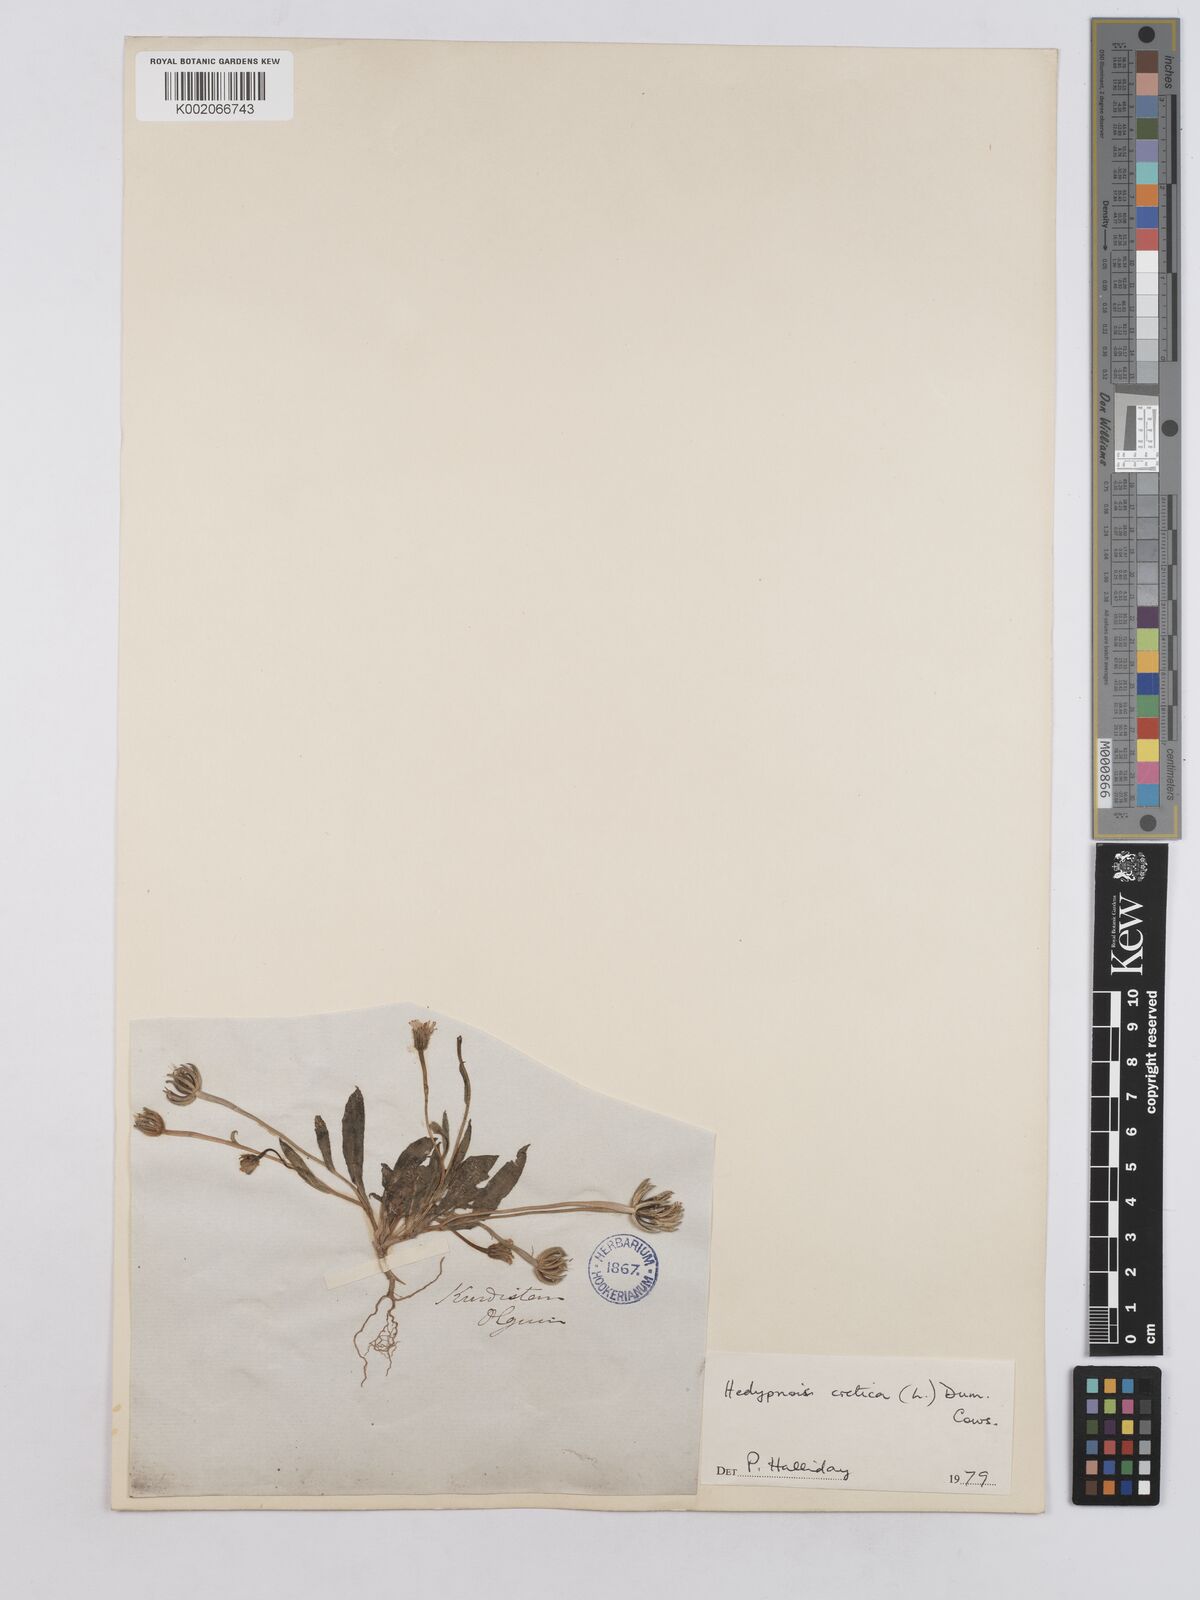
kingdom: Plantae
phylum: Tracheophyta
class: Magnoliopsida
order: Asterales
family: Asteraceae
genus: Hedypnois
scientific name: Hedypnois cretica
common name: Scaly hawkbit
